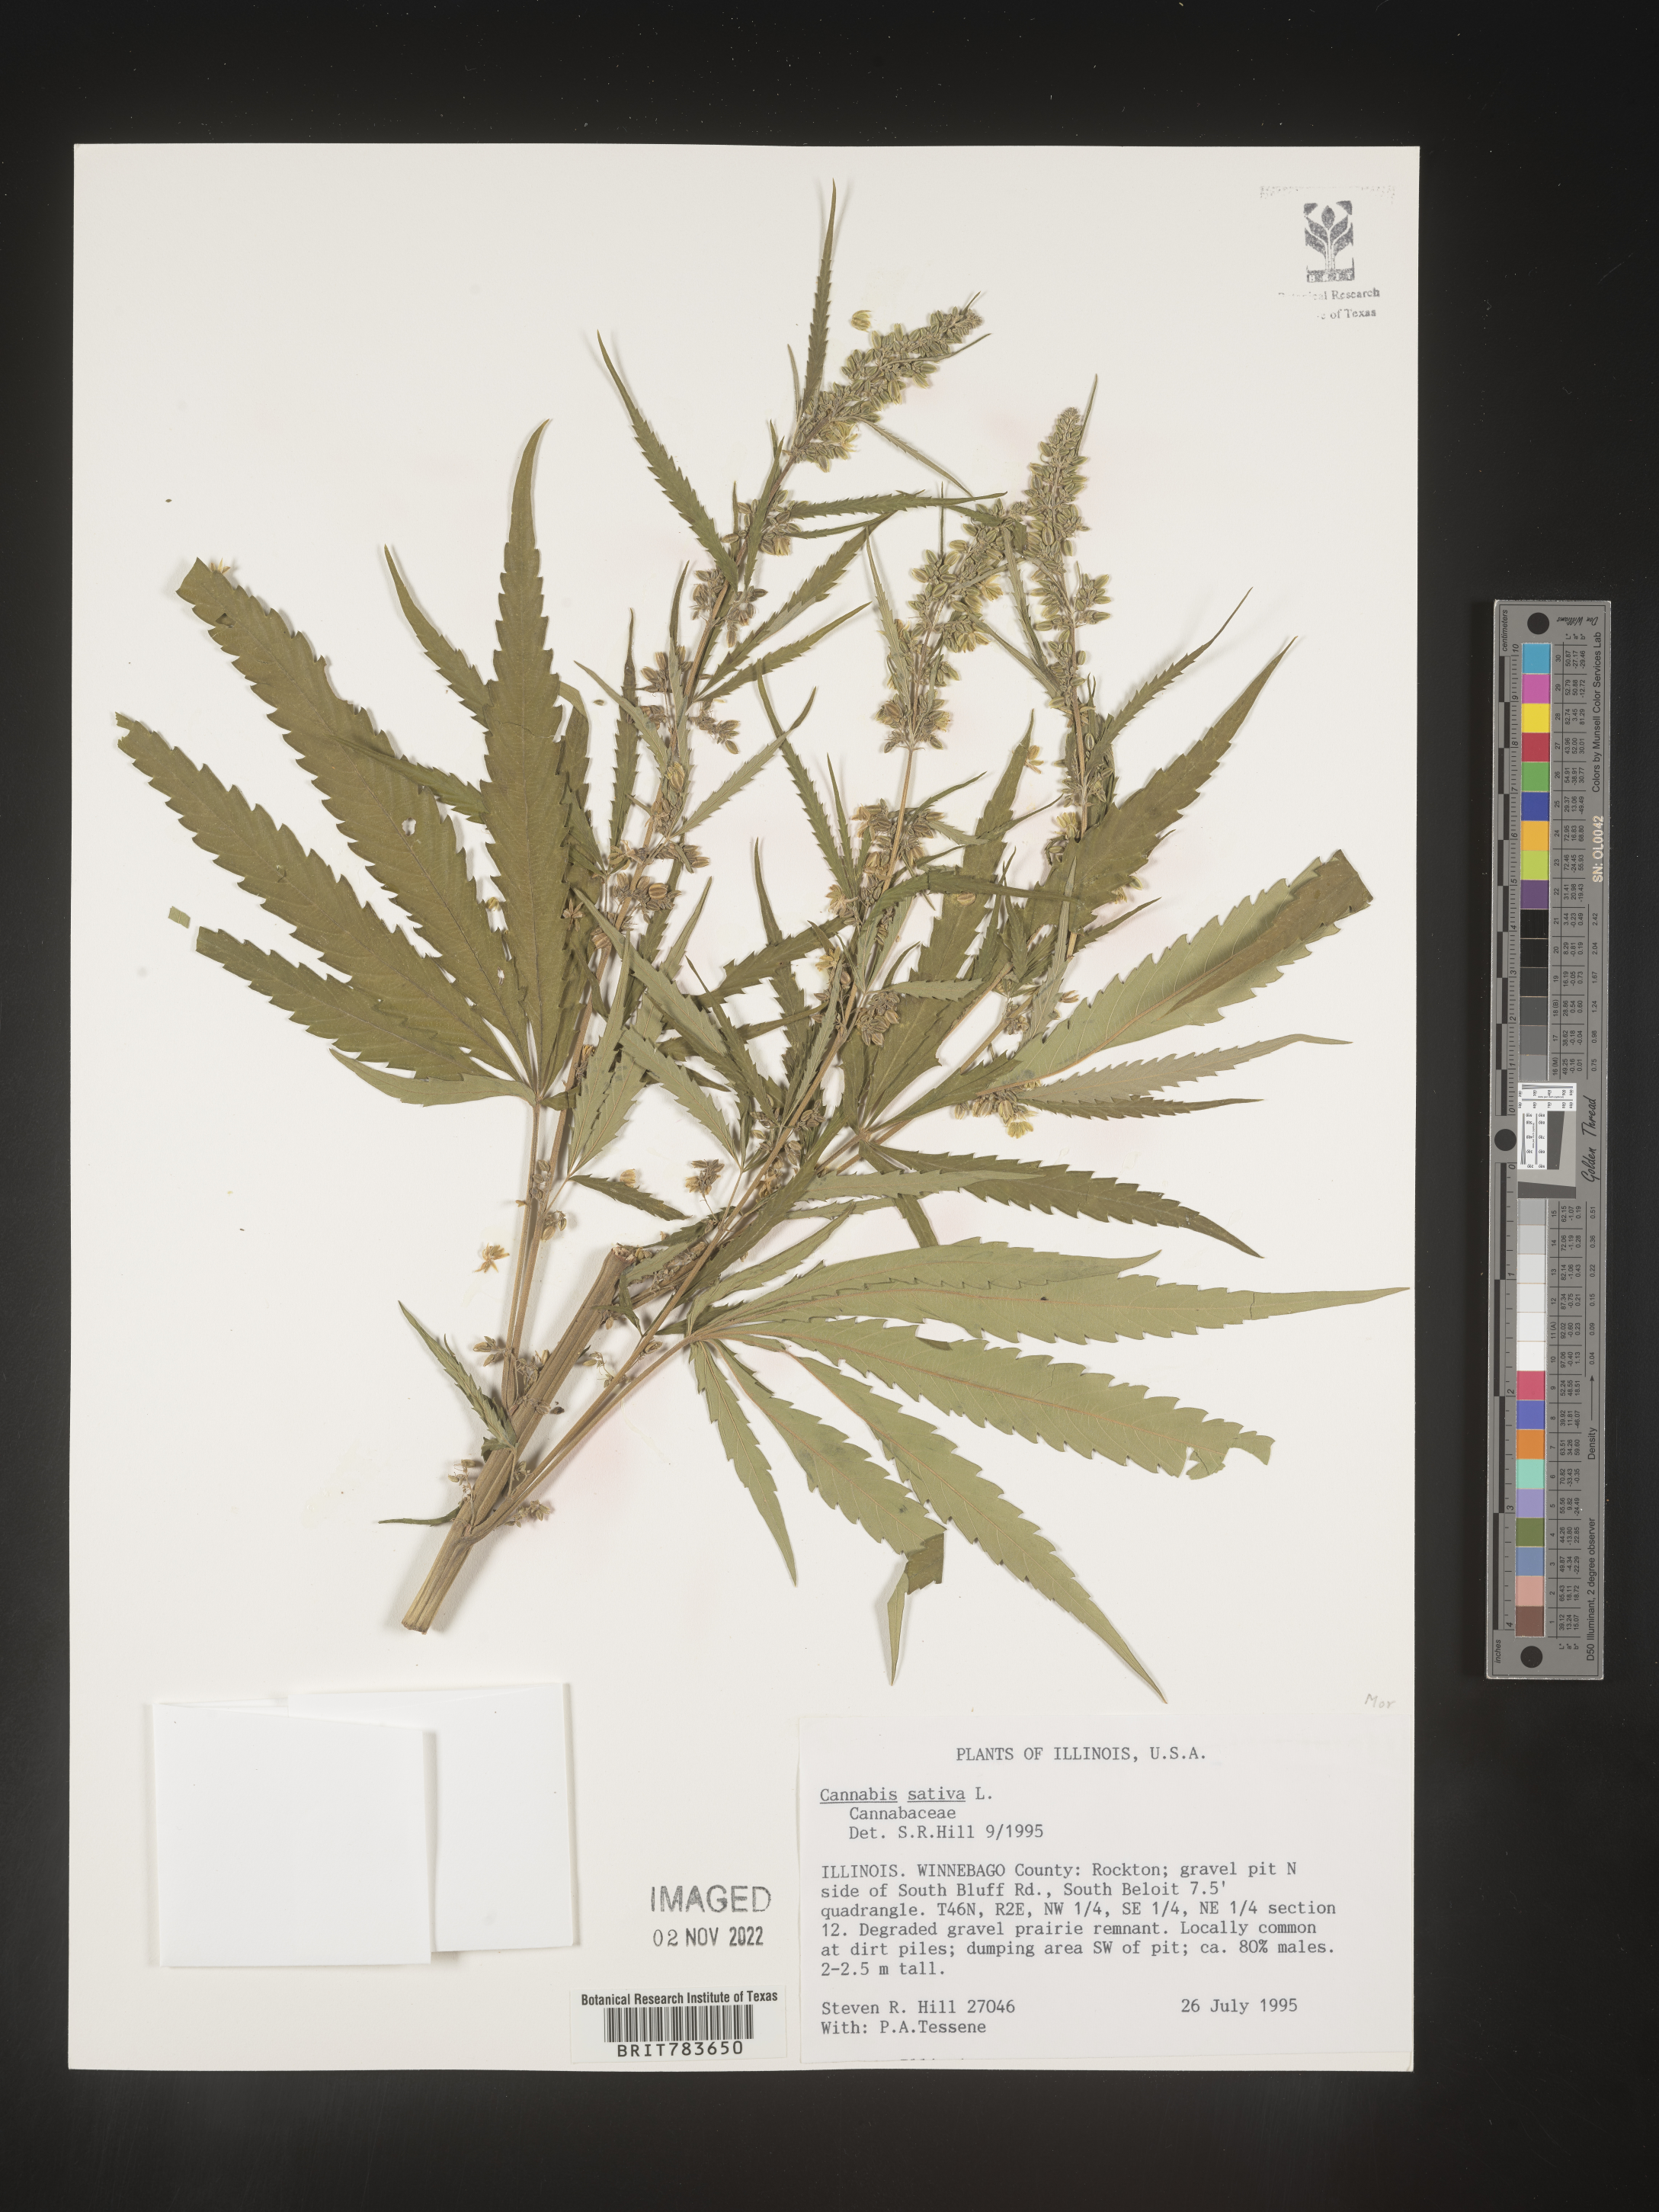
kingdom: Plantae
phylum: Tracheophyta
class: Magnoliopsida
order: Rosales
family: Cannabaceae
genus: Cannabis
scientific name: Cannabis sativa
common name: Hemp
